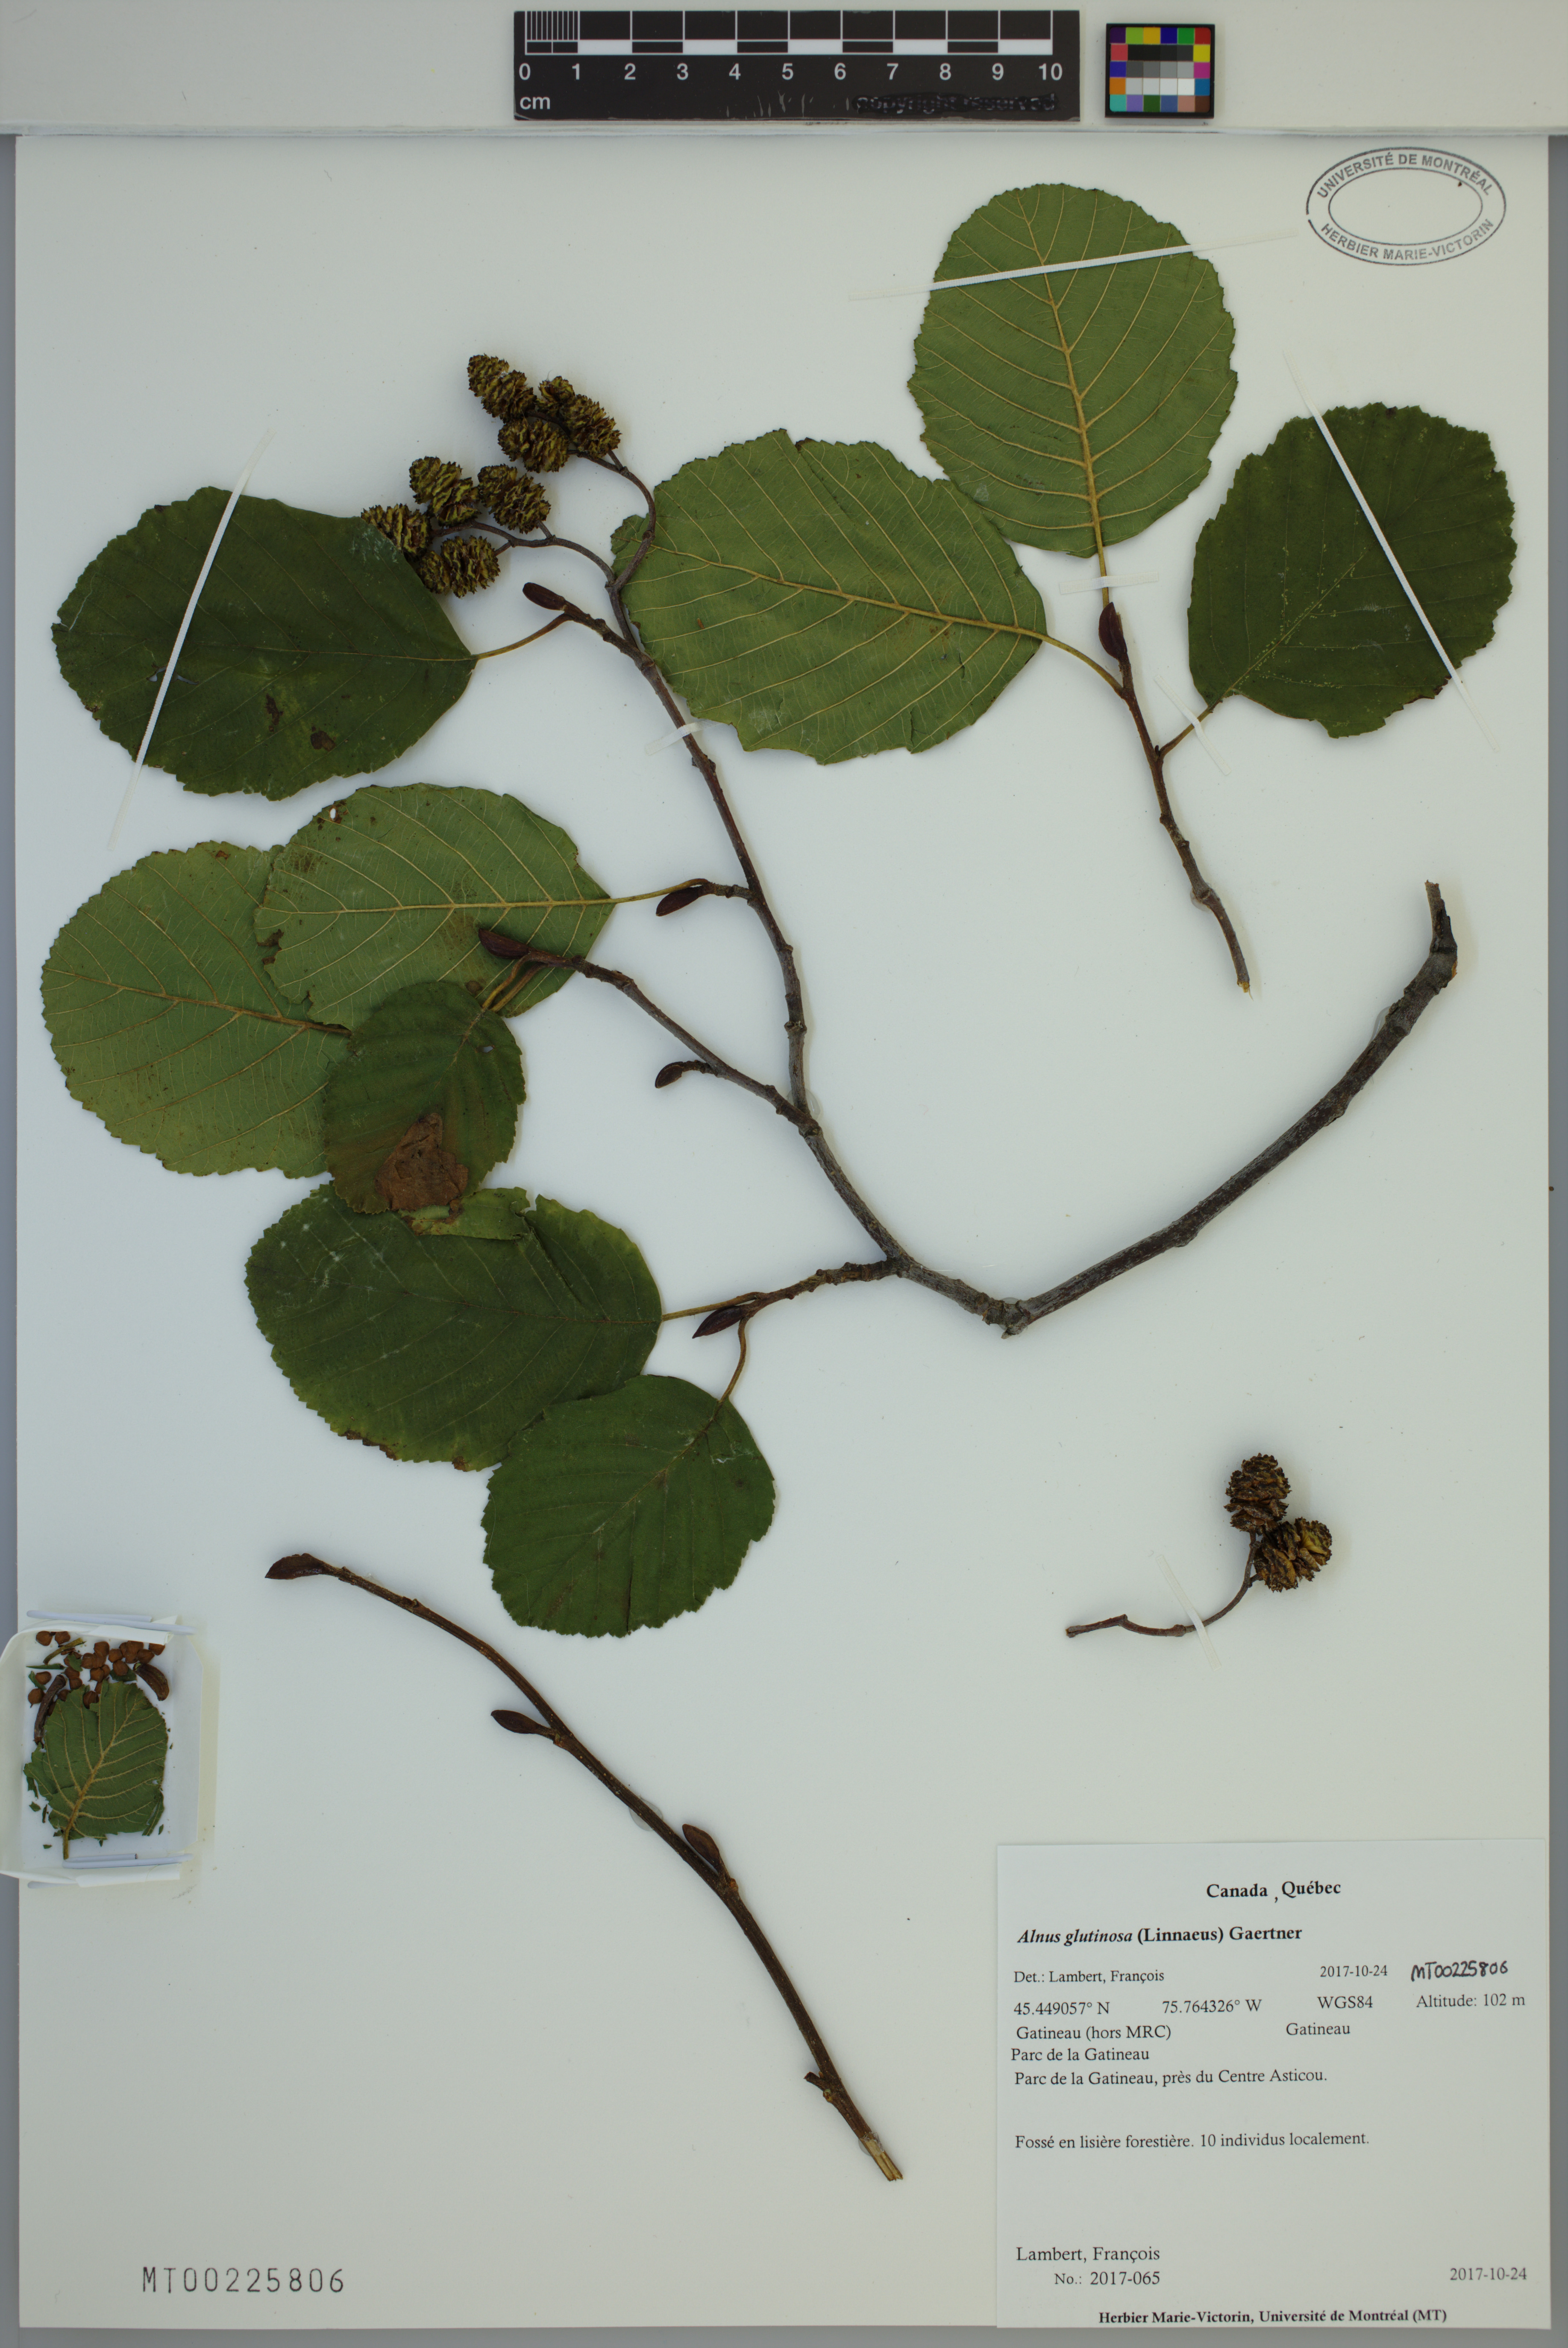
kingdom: Plantae
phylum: Tracheophyta
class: Magnoliopsida
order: Fagales
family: Betulaceae
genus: Alnus
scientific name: Alnus glutinosa
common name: Black alder
